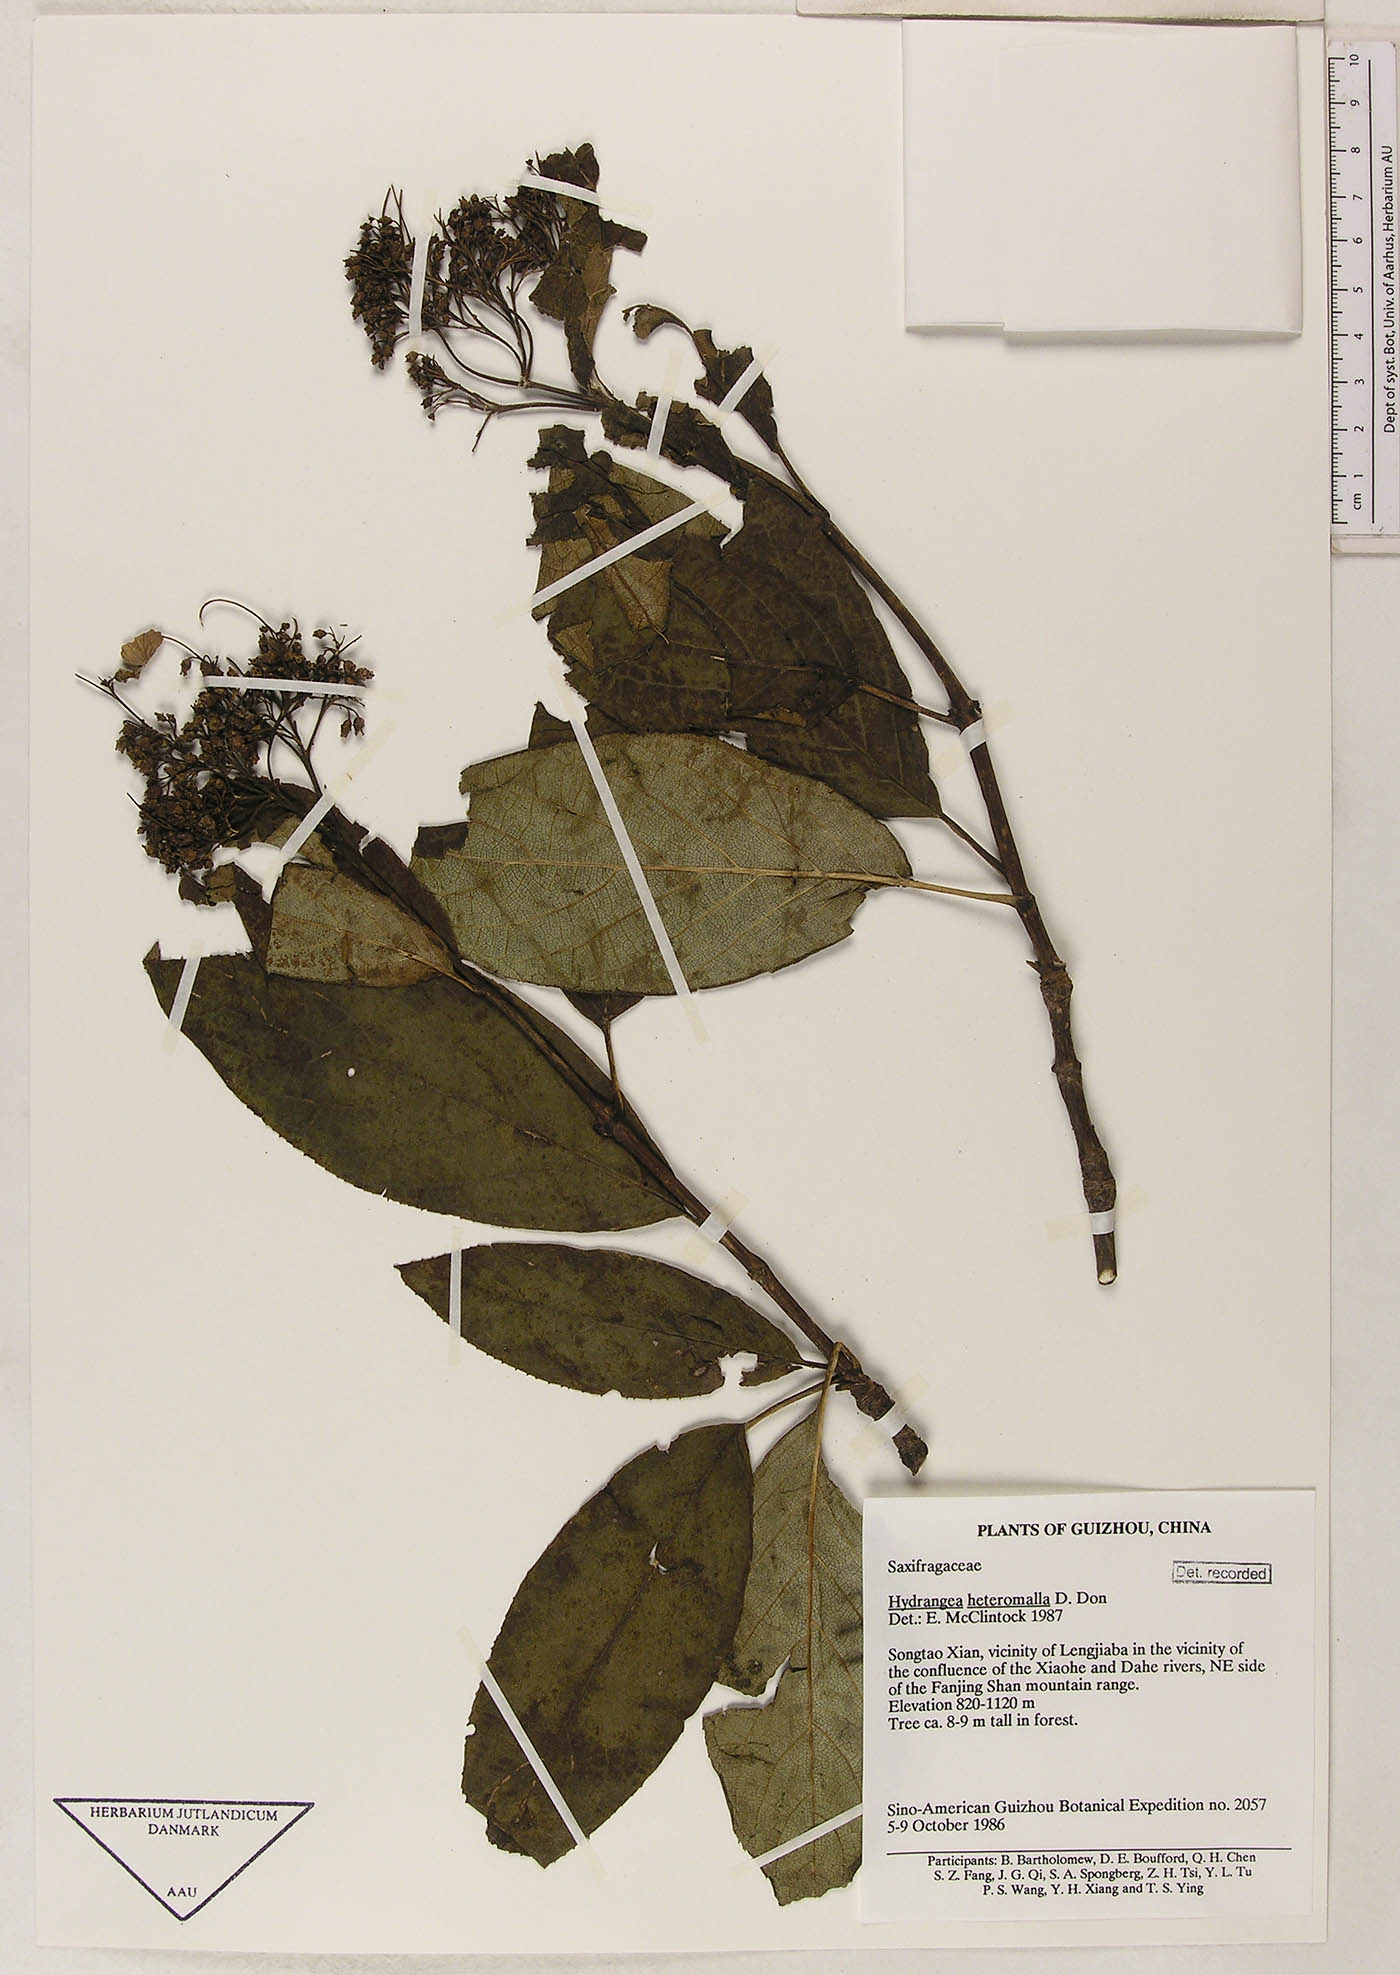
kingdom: Plantae
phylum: Tracheophyta
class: Magnoliopsida
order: Cornales
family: Hydrangeaceae
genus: Hydrangea
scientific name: Hydrangea heteromalla
